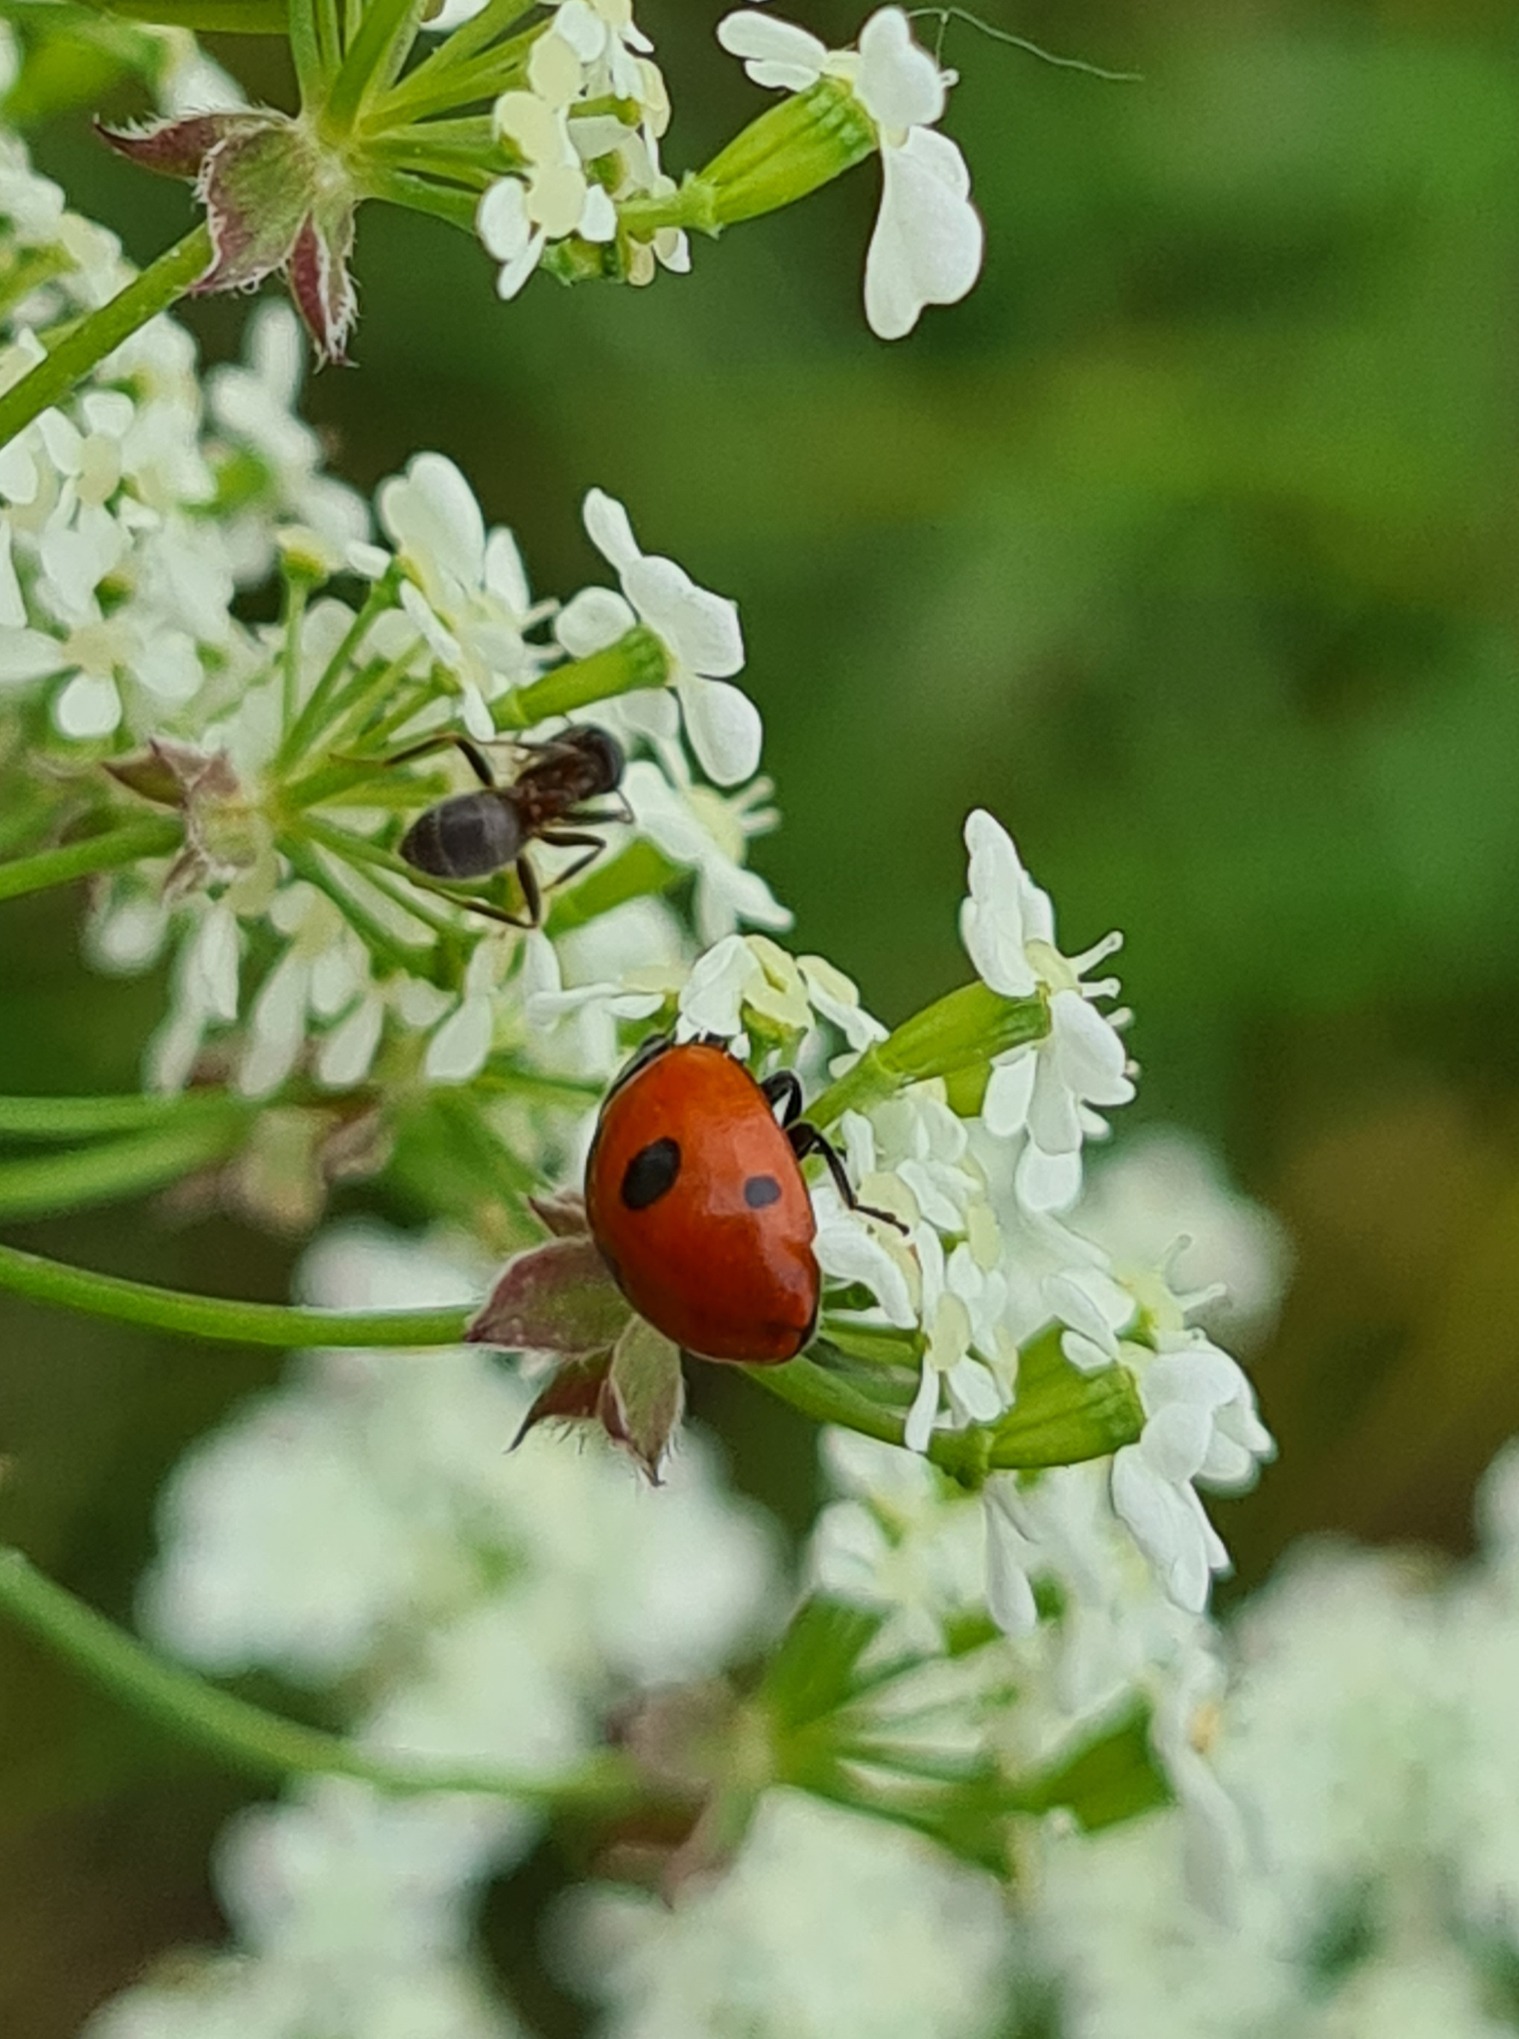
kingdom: Animalia
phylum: Arthropoda
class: Insecta
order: Coleoptera
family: Coccinellidae
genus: Coccinella
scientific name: Coccinella quinquepunctata
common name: Femplettet mariehøne
